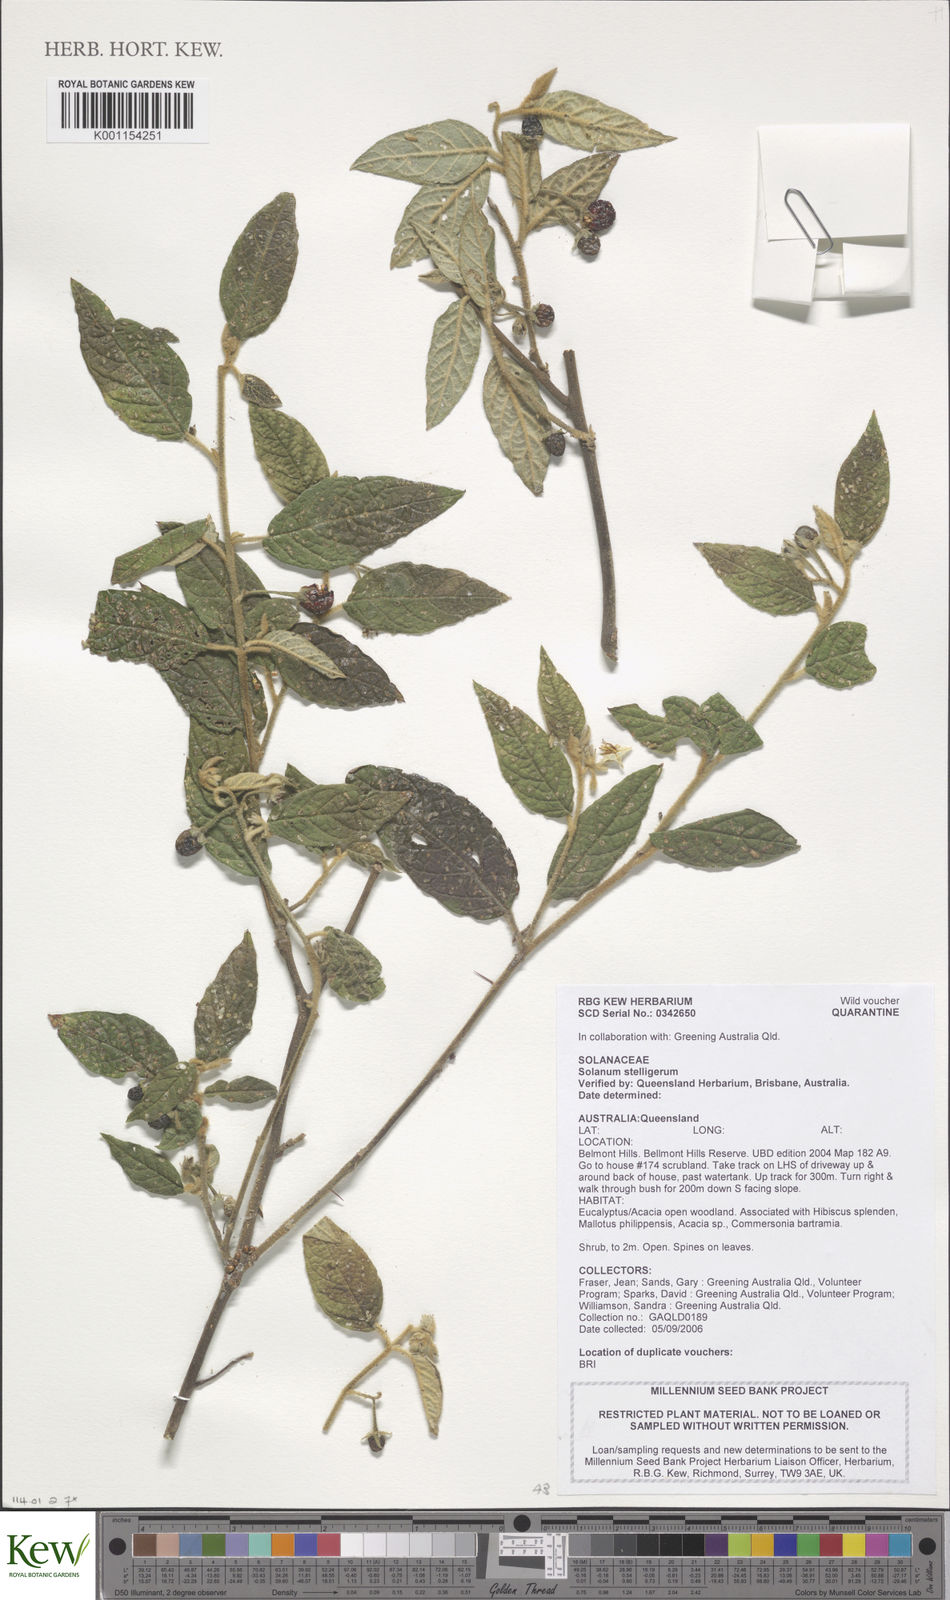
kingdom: Plantae
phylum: Tracheophyta
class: Magnoliopsida
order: Solanales
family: Solanaceae
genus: Solanum
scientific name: Solanum stelligerum
